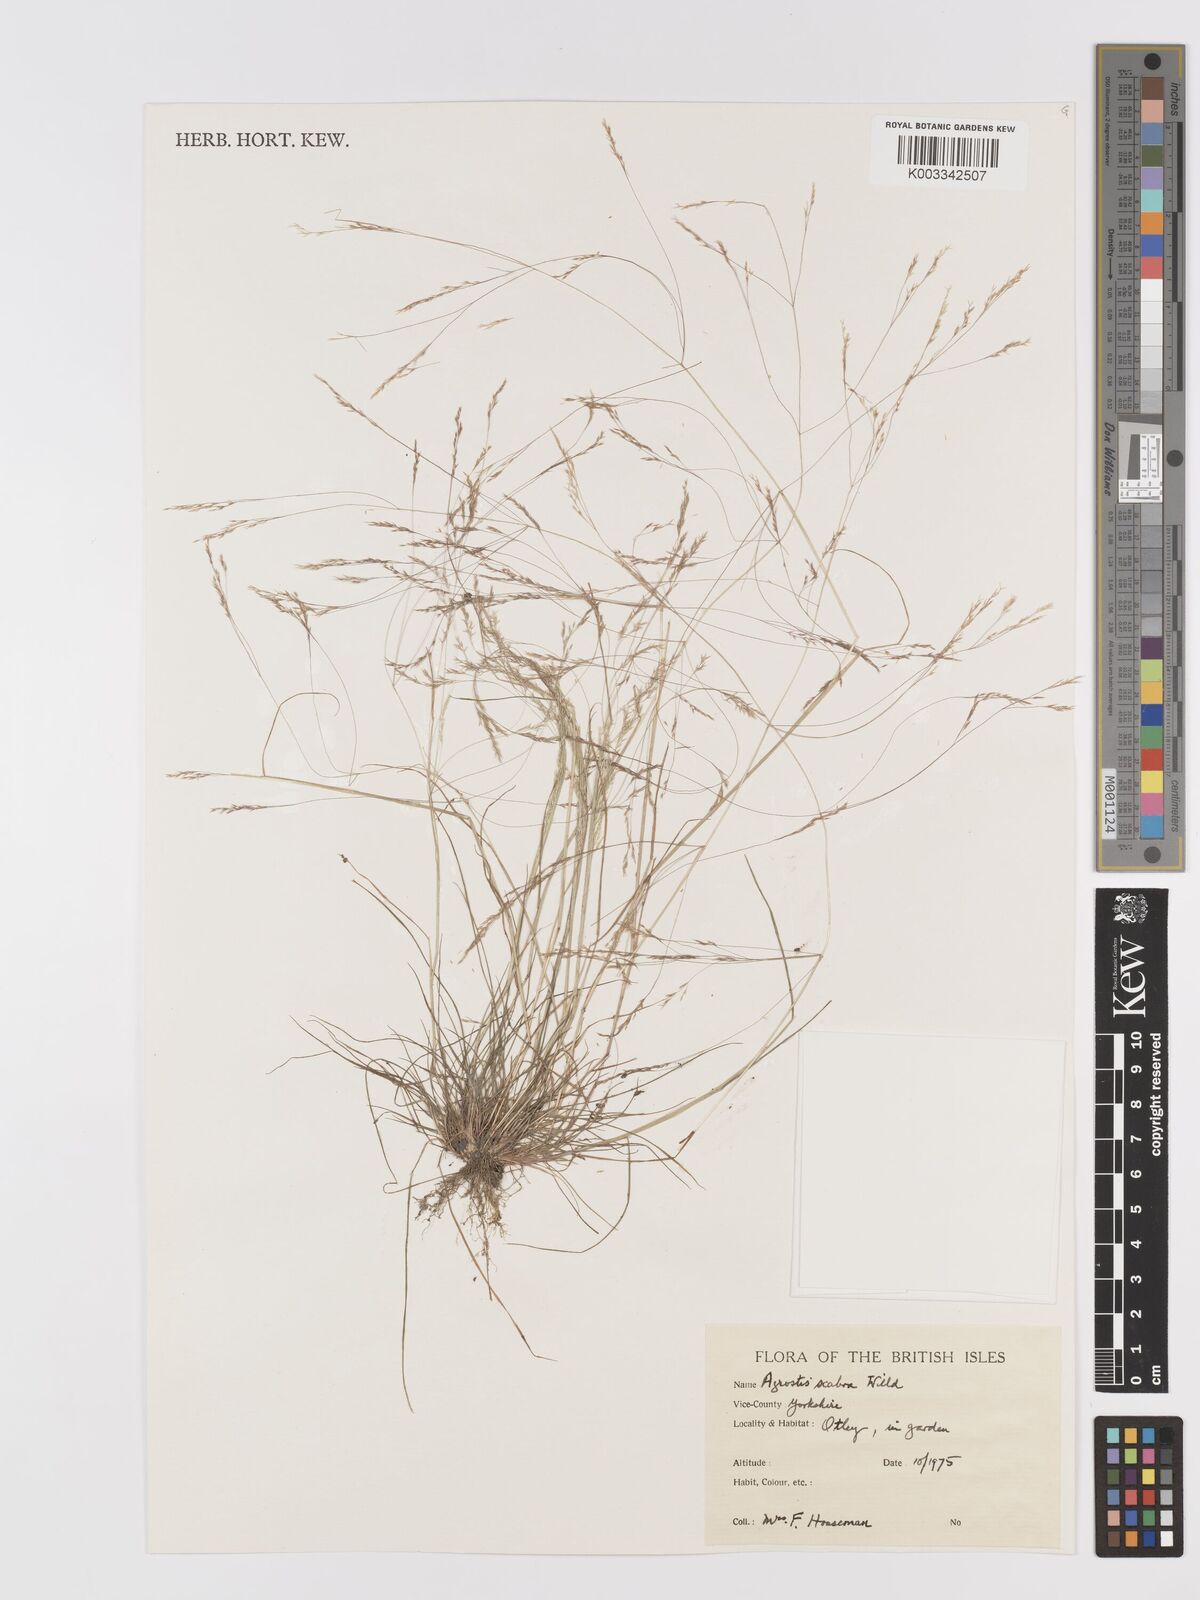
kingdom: Plantae
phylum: Tracheophyta
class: Liliopsida
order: Poales
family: Poaceae
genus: Agrostis
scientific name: Agrostis hyemalis
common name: Small bent
